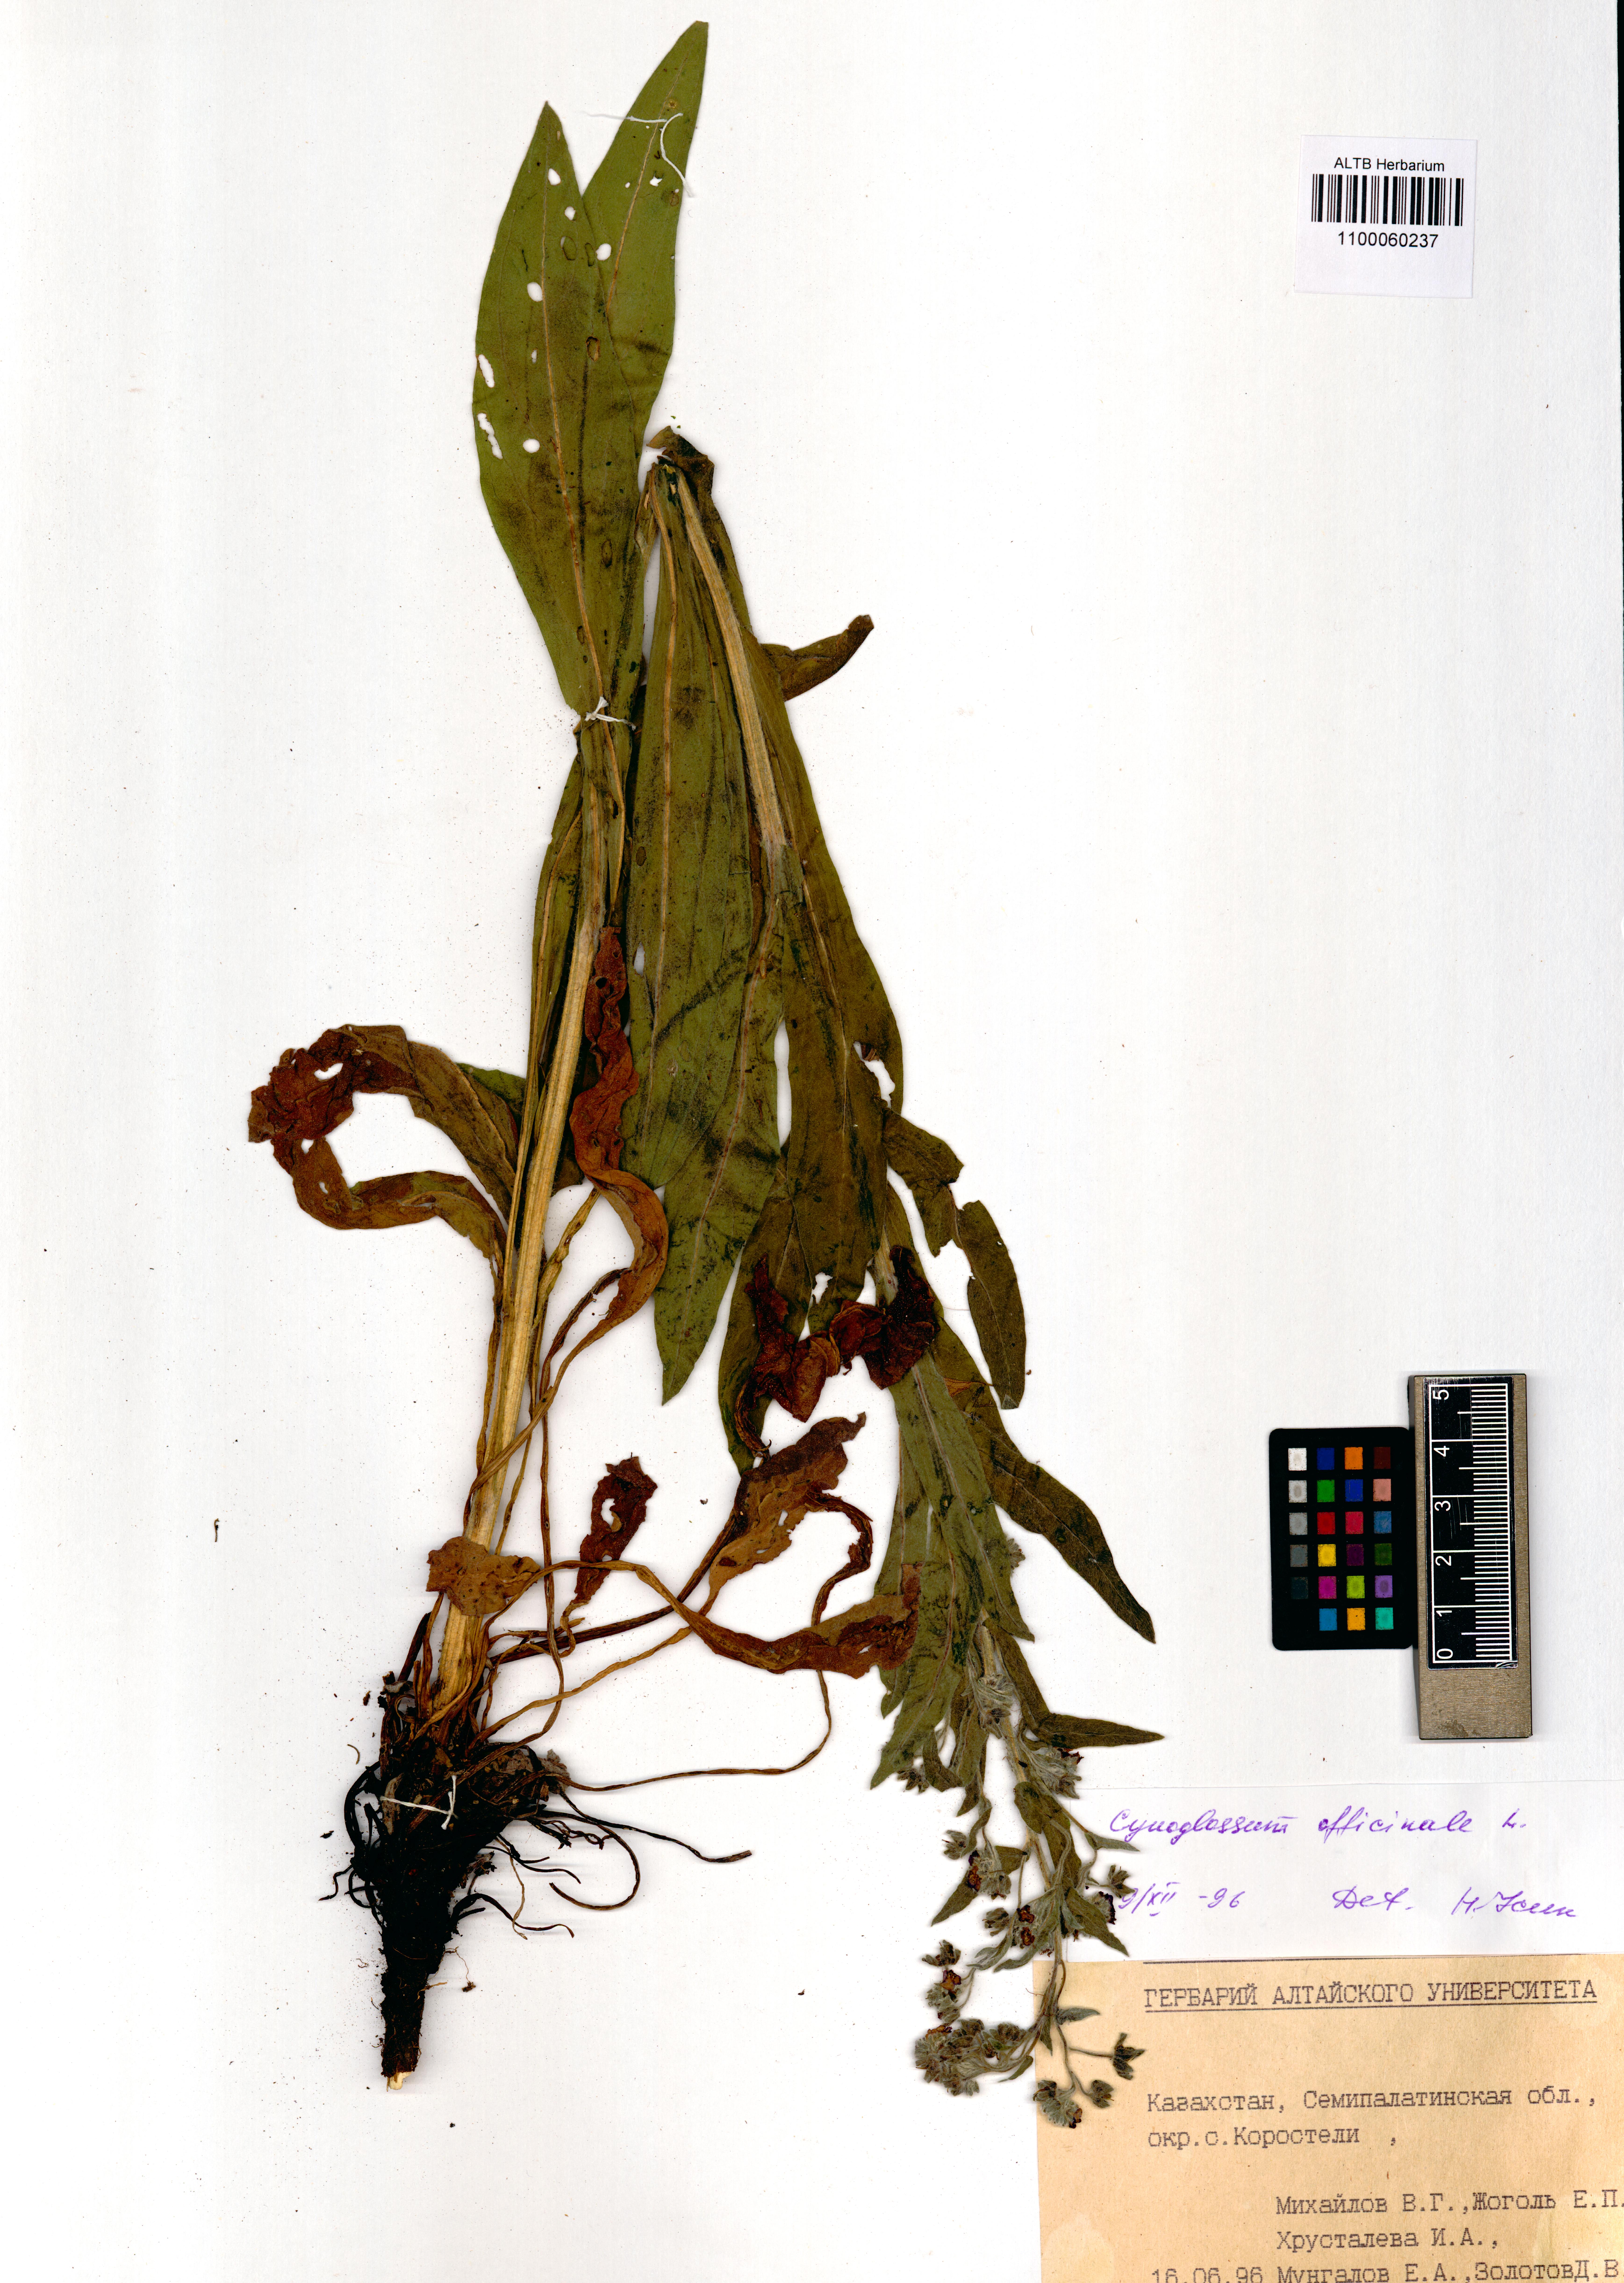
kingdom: Plantae
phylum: Tracheophyta
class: Magnoliopsida
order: Boraginales
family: Boraginaceae
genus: Cynoglossum
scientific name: Cynoglossum officinale
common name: Hound's-tongue
